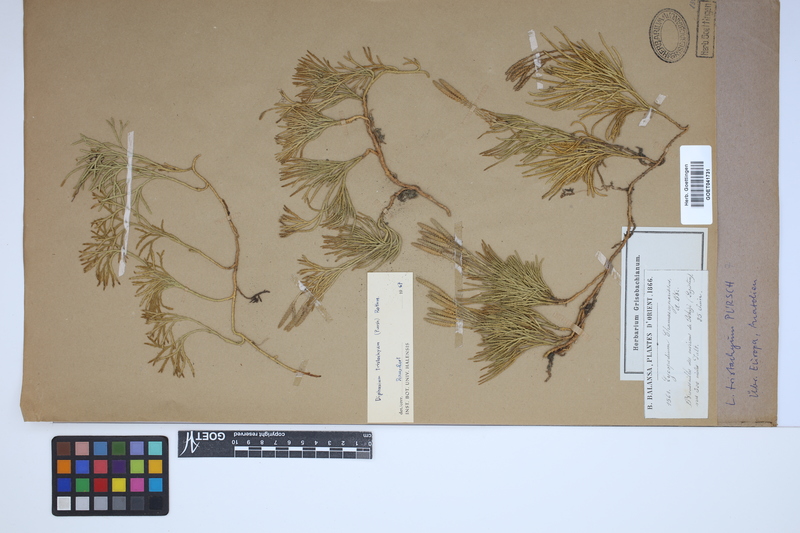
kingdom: Plantae
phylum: Tracheophyta
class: Lycopodiopsida
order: Lycopodiales
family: Lycopodiaceae
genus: Diphasiastrum
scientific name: Diphasiastrum tristachyum
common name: Blue ground-cedar
